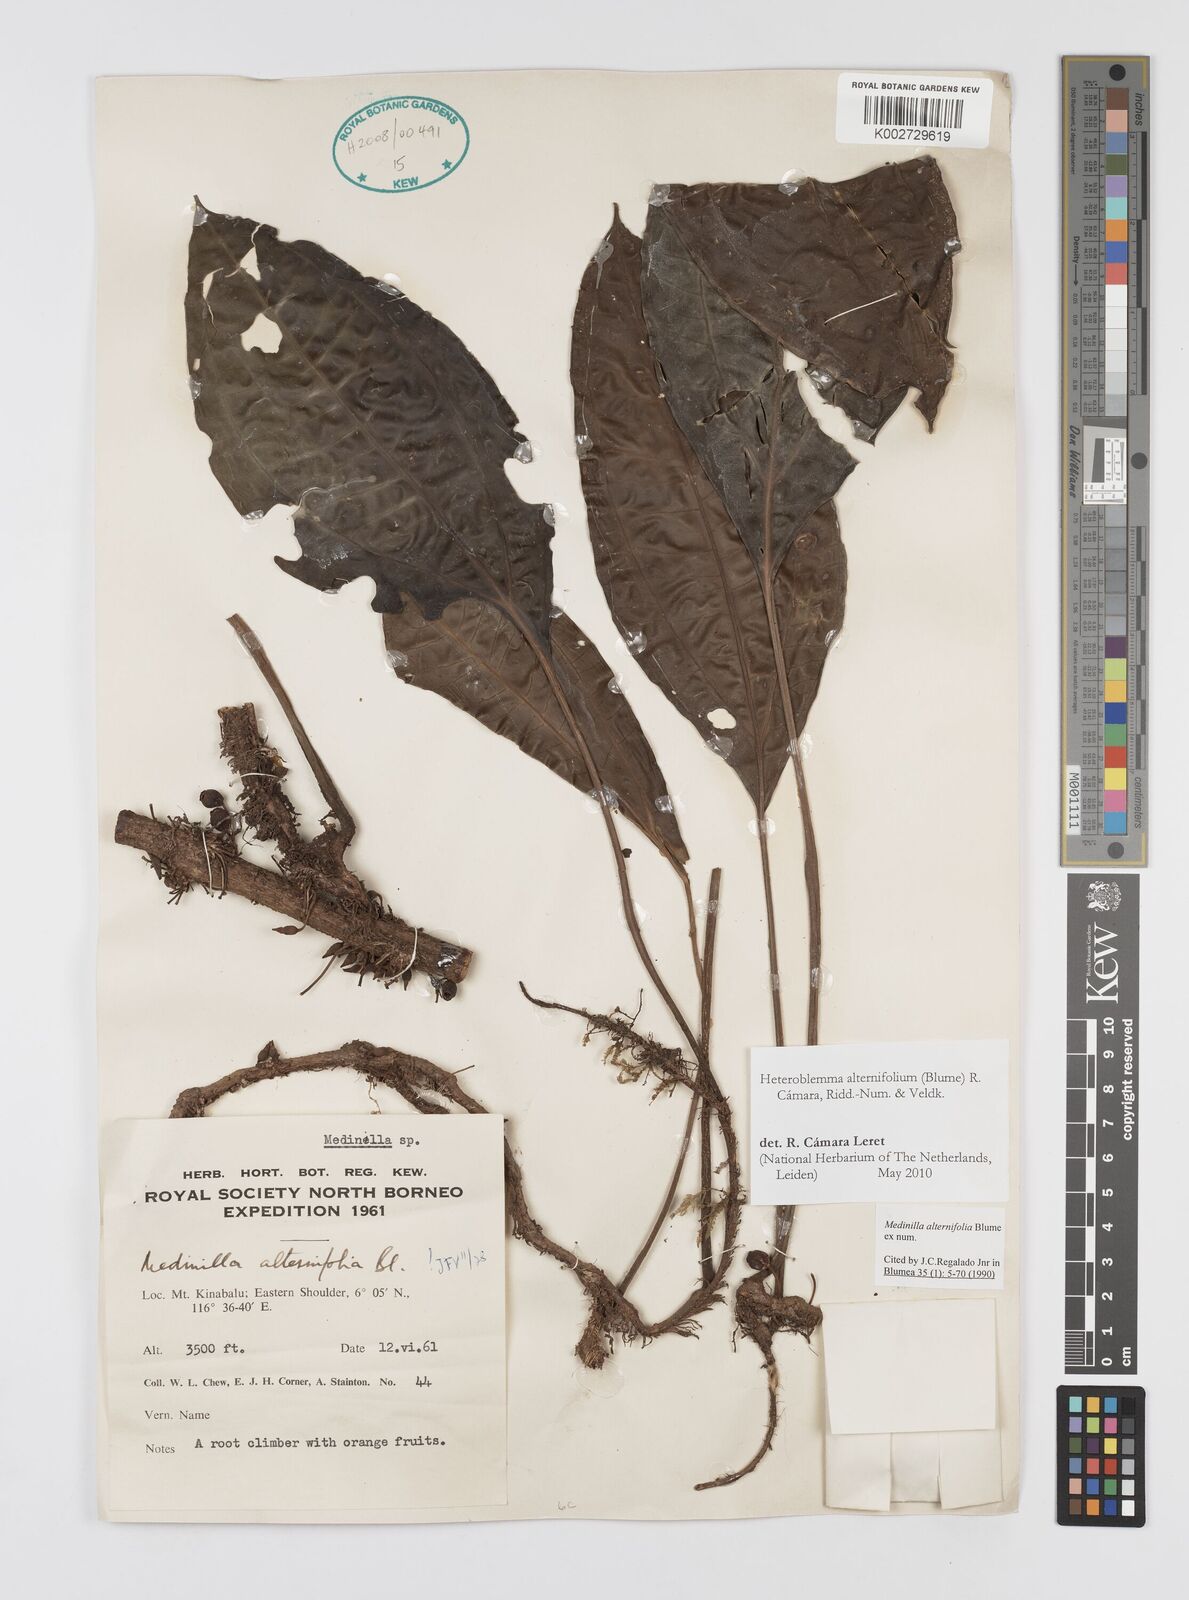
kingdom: Plantae
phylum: Tracheophyta
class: Magnoliopsida
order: Myrtales
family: Melastomataceae
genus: Heteroblemma
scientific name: Heteroblemma alternifolium
